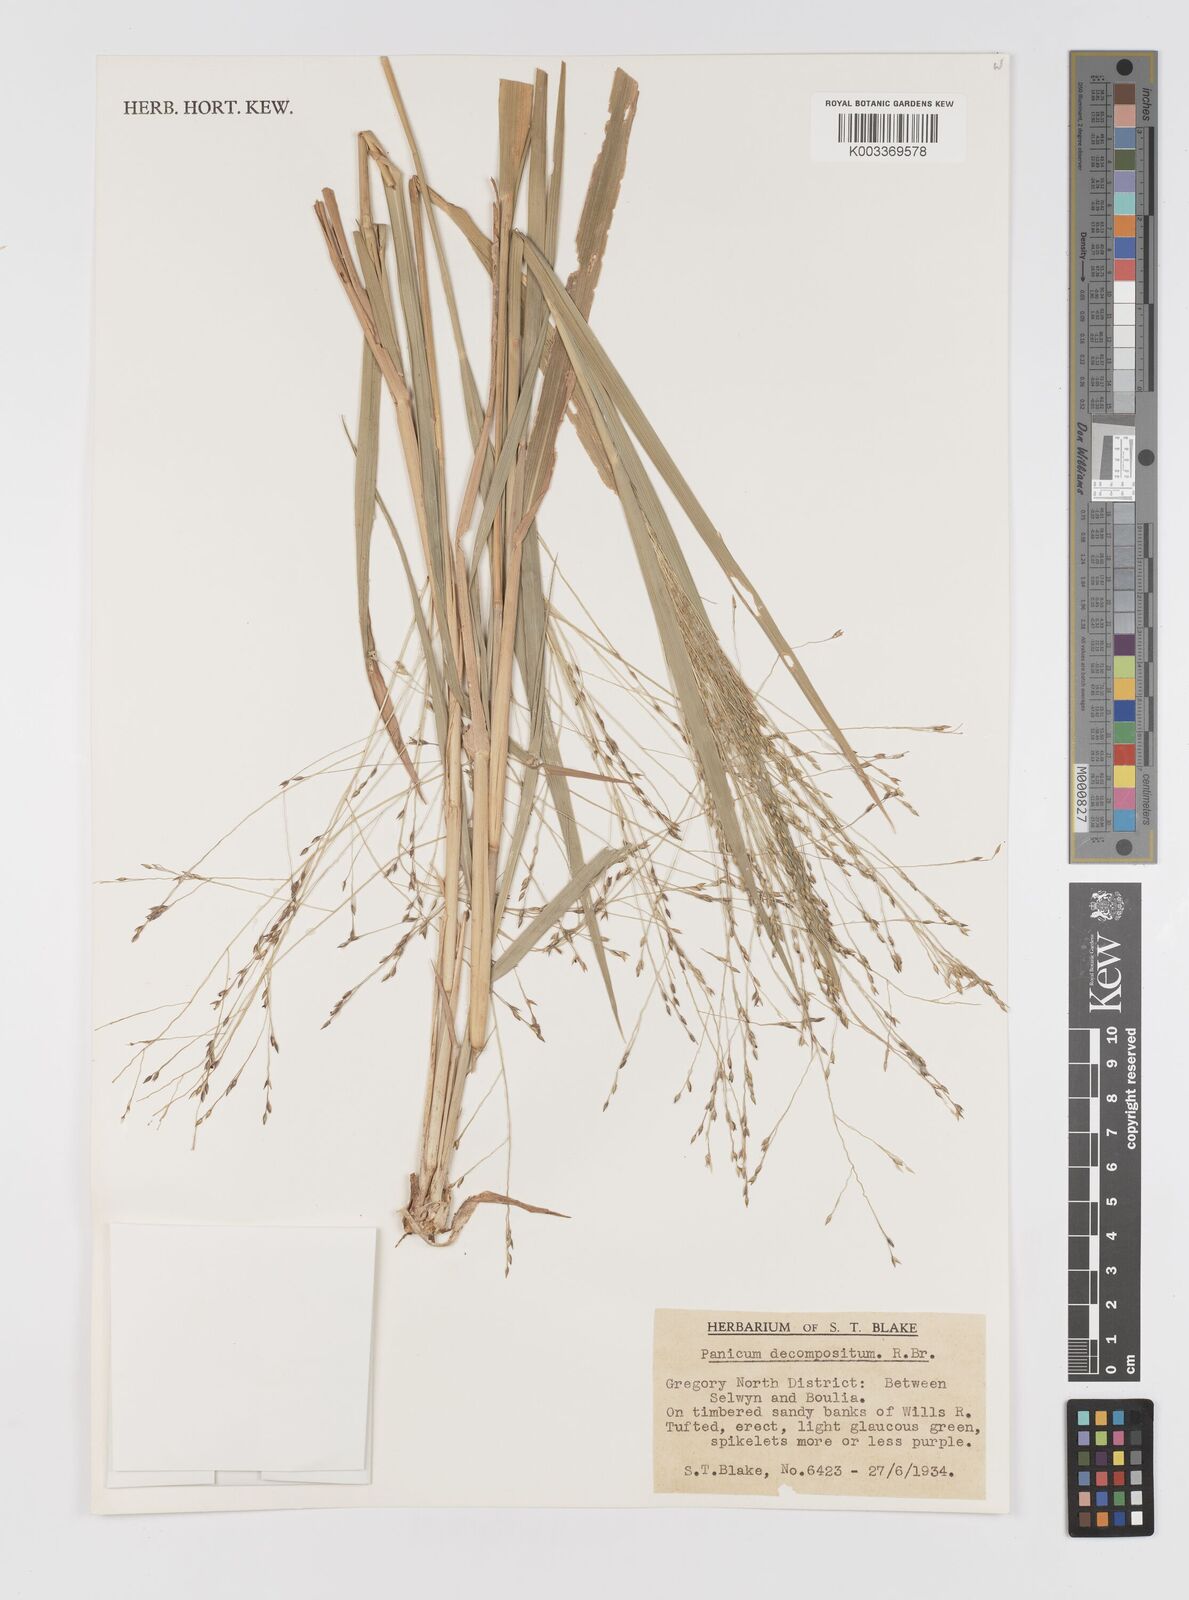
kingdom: Plantae
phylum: Tracheophyta
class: Liliopsida
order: Poales
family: Poaceae
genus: Panicum
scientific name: Panicum decompositum
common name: Australian millet
